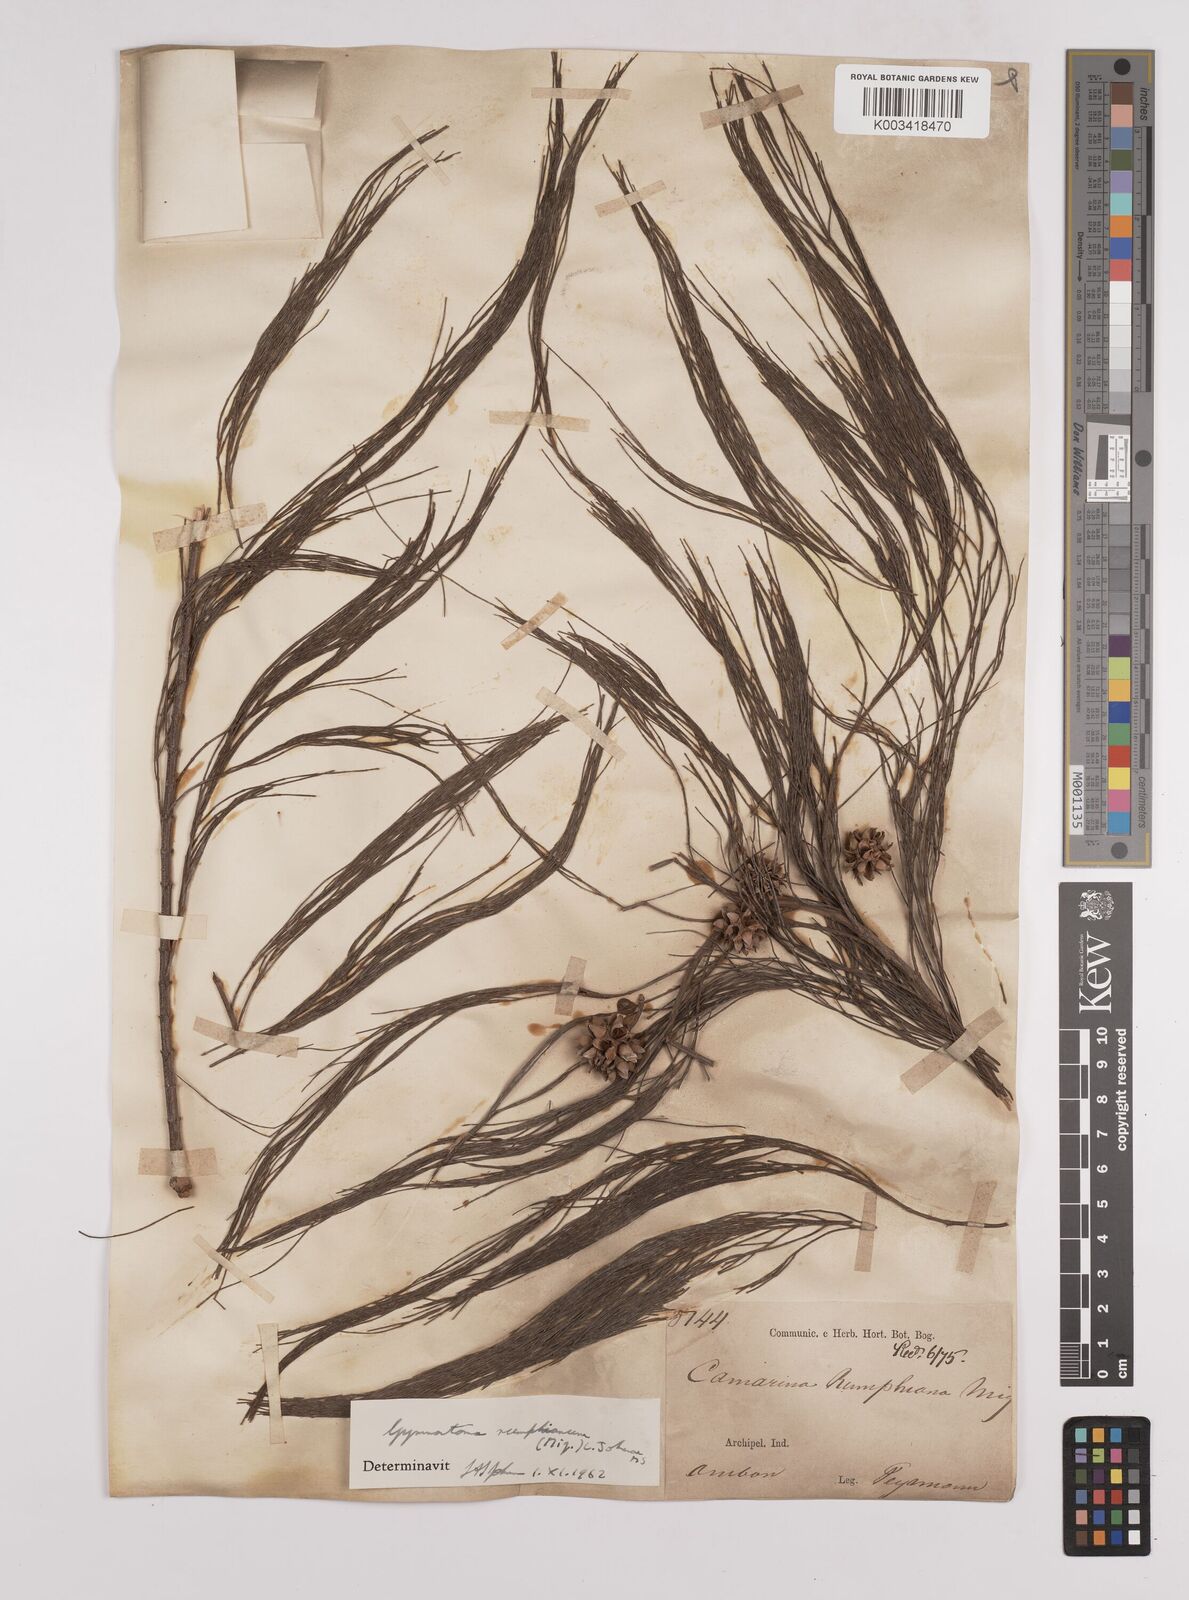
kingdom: Plantae
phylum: Tracheophyta
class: Magnoliopsida
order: Fagales
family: Casuarinaceae
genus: Gymnostoma
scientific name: Gymnostoma rumphianum
